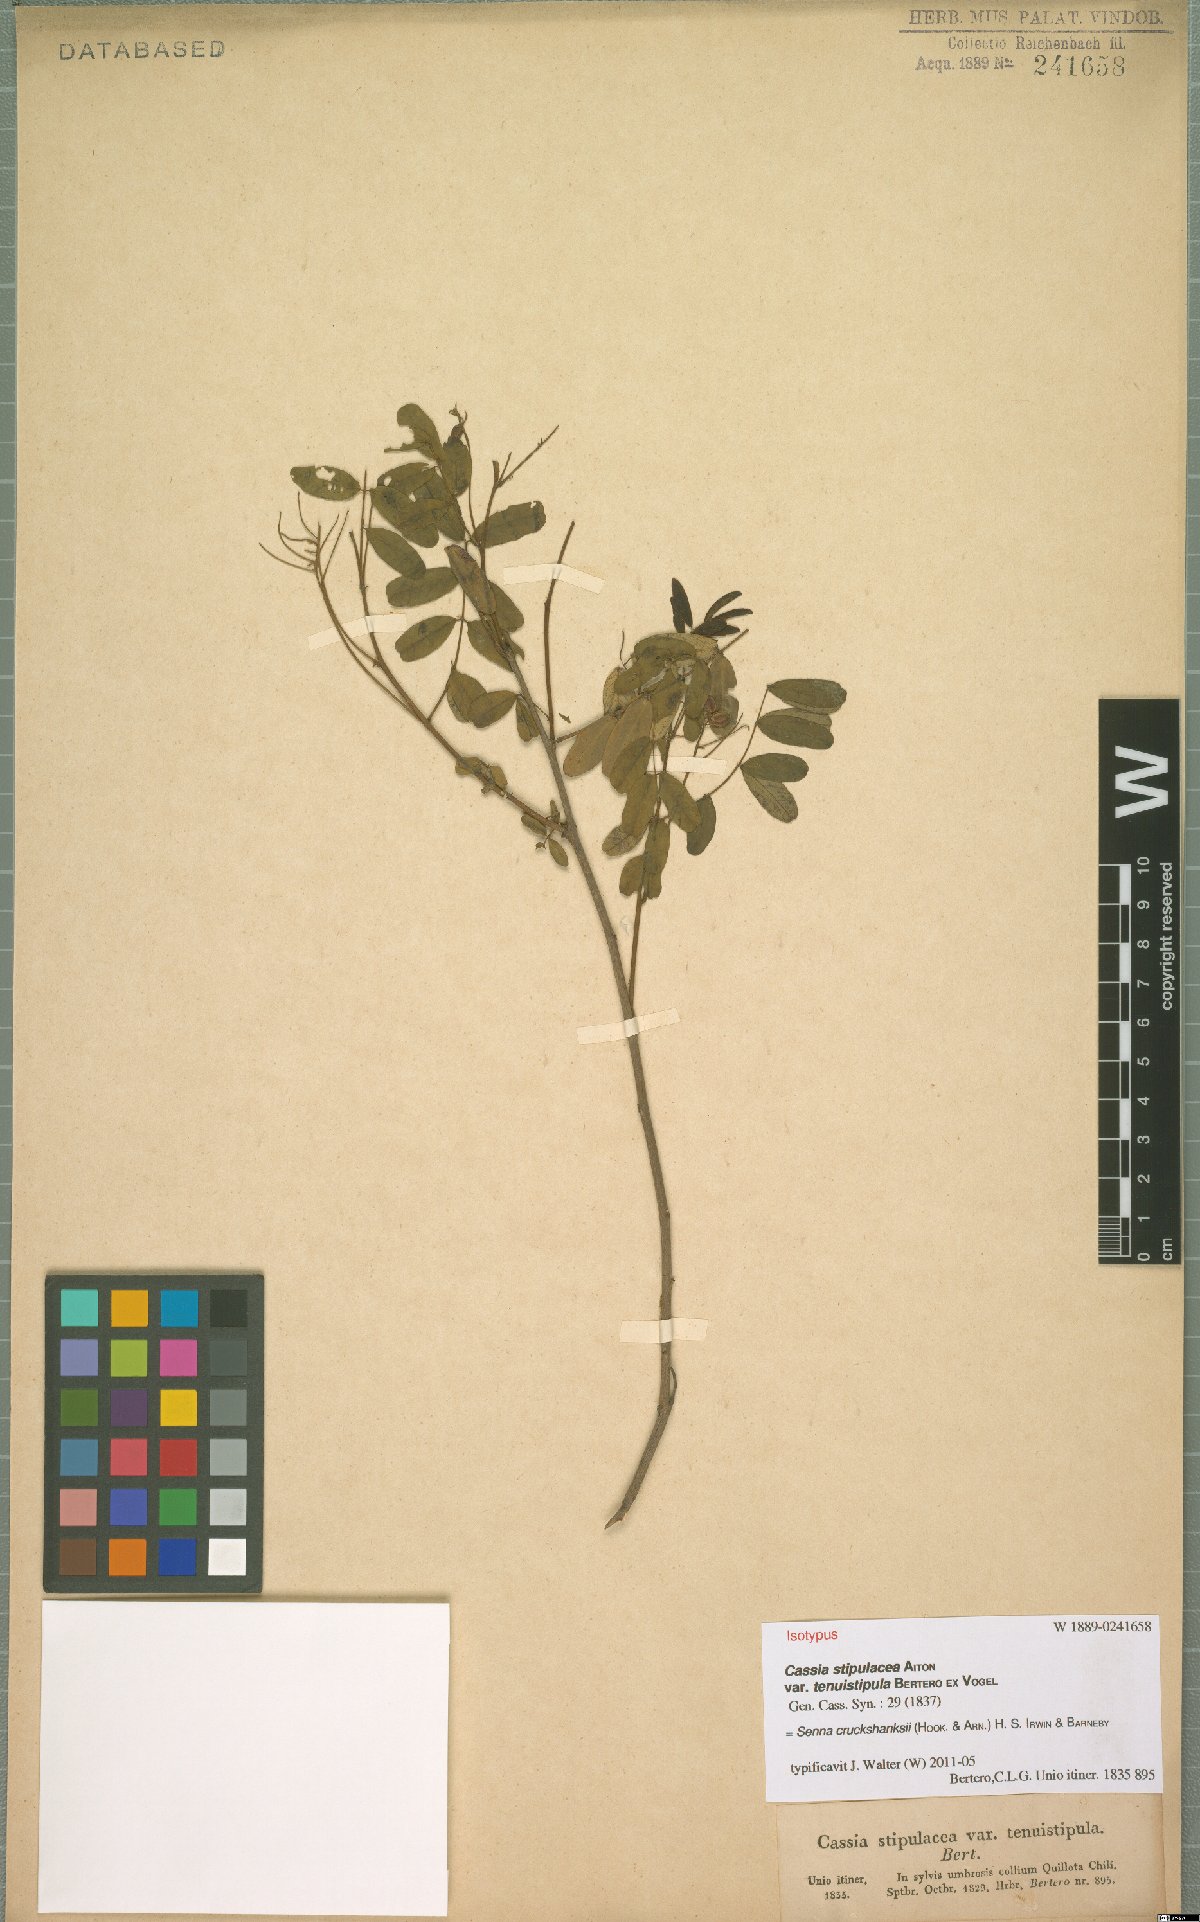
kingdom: Plantae
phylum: Tracheophyta
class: Magnoliopsida
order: Fabales
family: Fabaceae
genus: Senna
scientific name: Senna cruckshanksii
